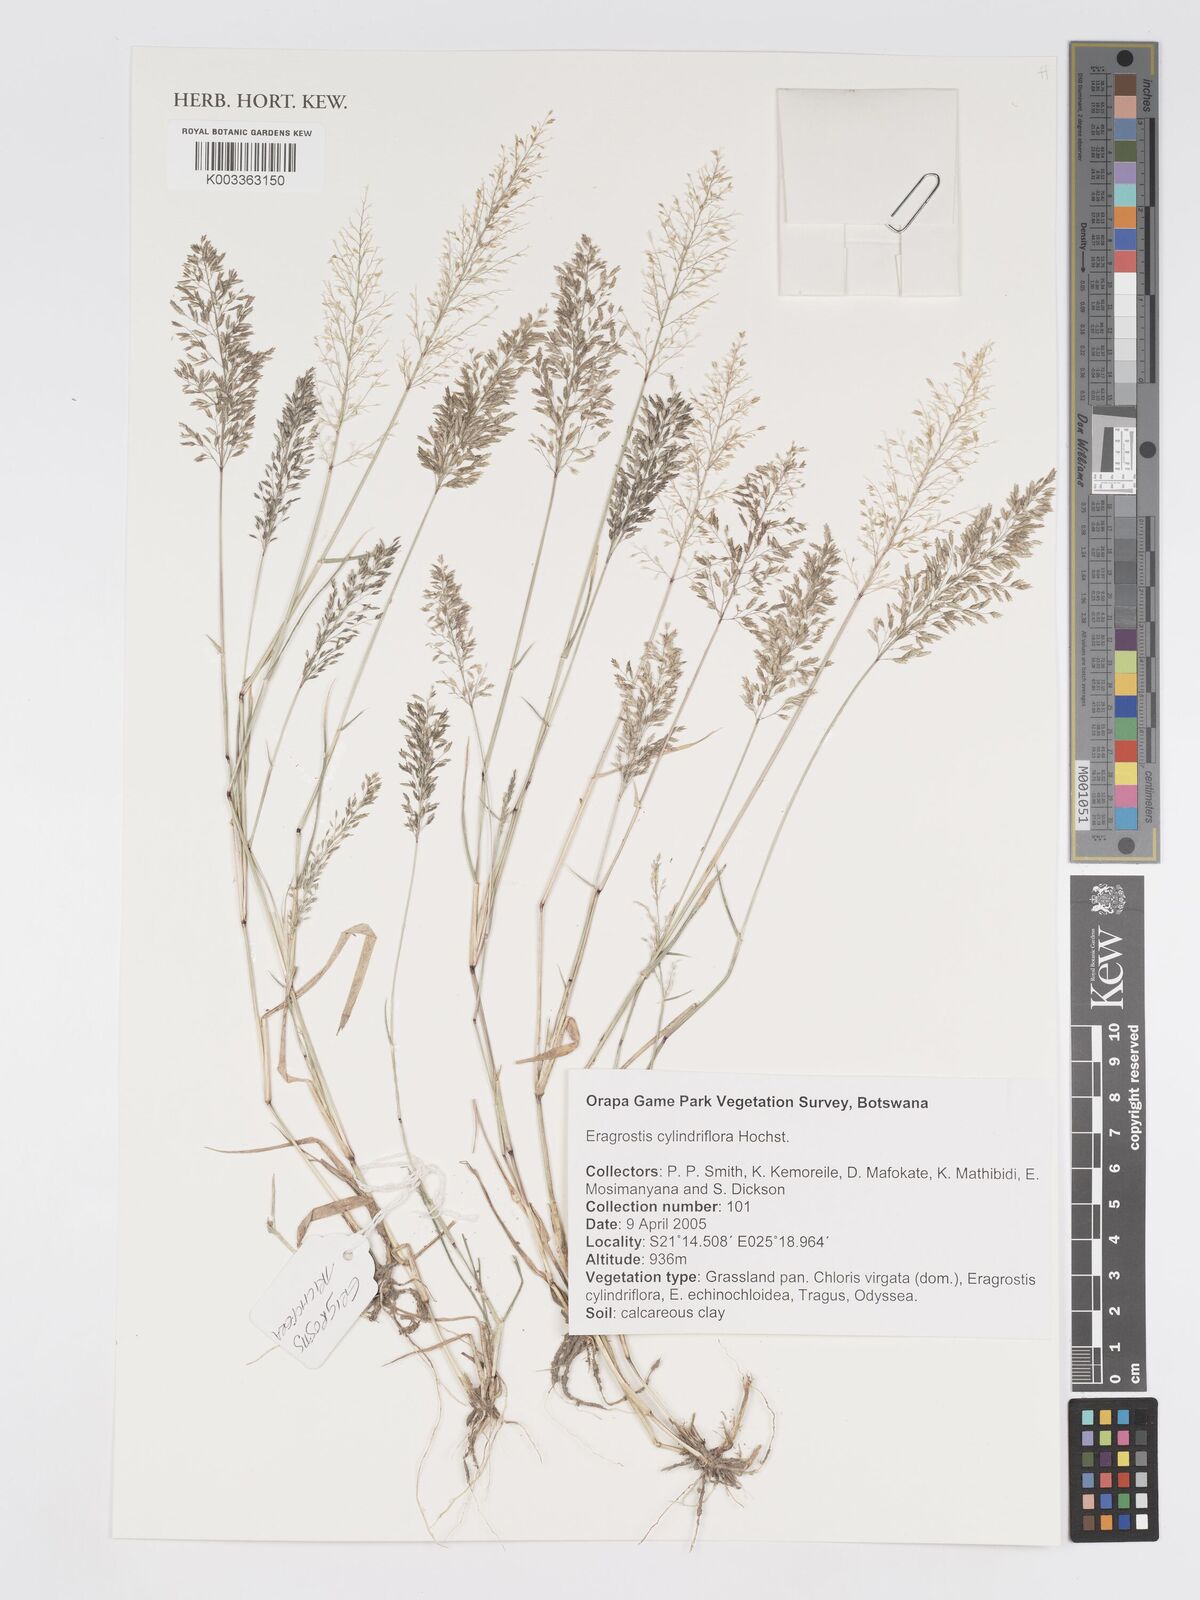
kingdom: Plantae
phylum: Tracheophyta
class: Liliopsida
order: Poales
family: Poaceae
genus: Eragrostis
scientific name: Eragrostis cylindriflora
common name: Cylinderflower lovegrass
